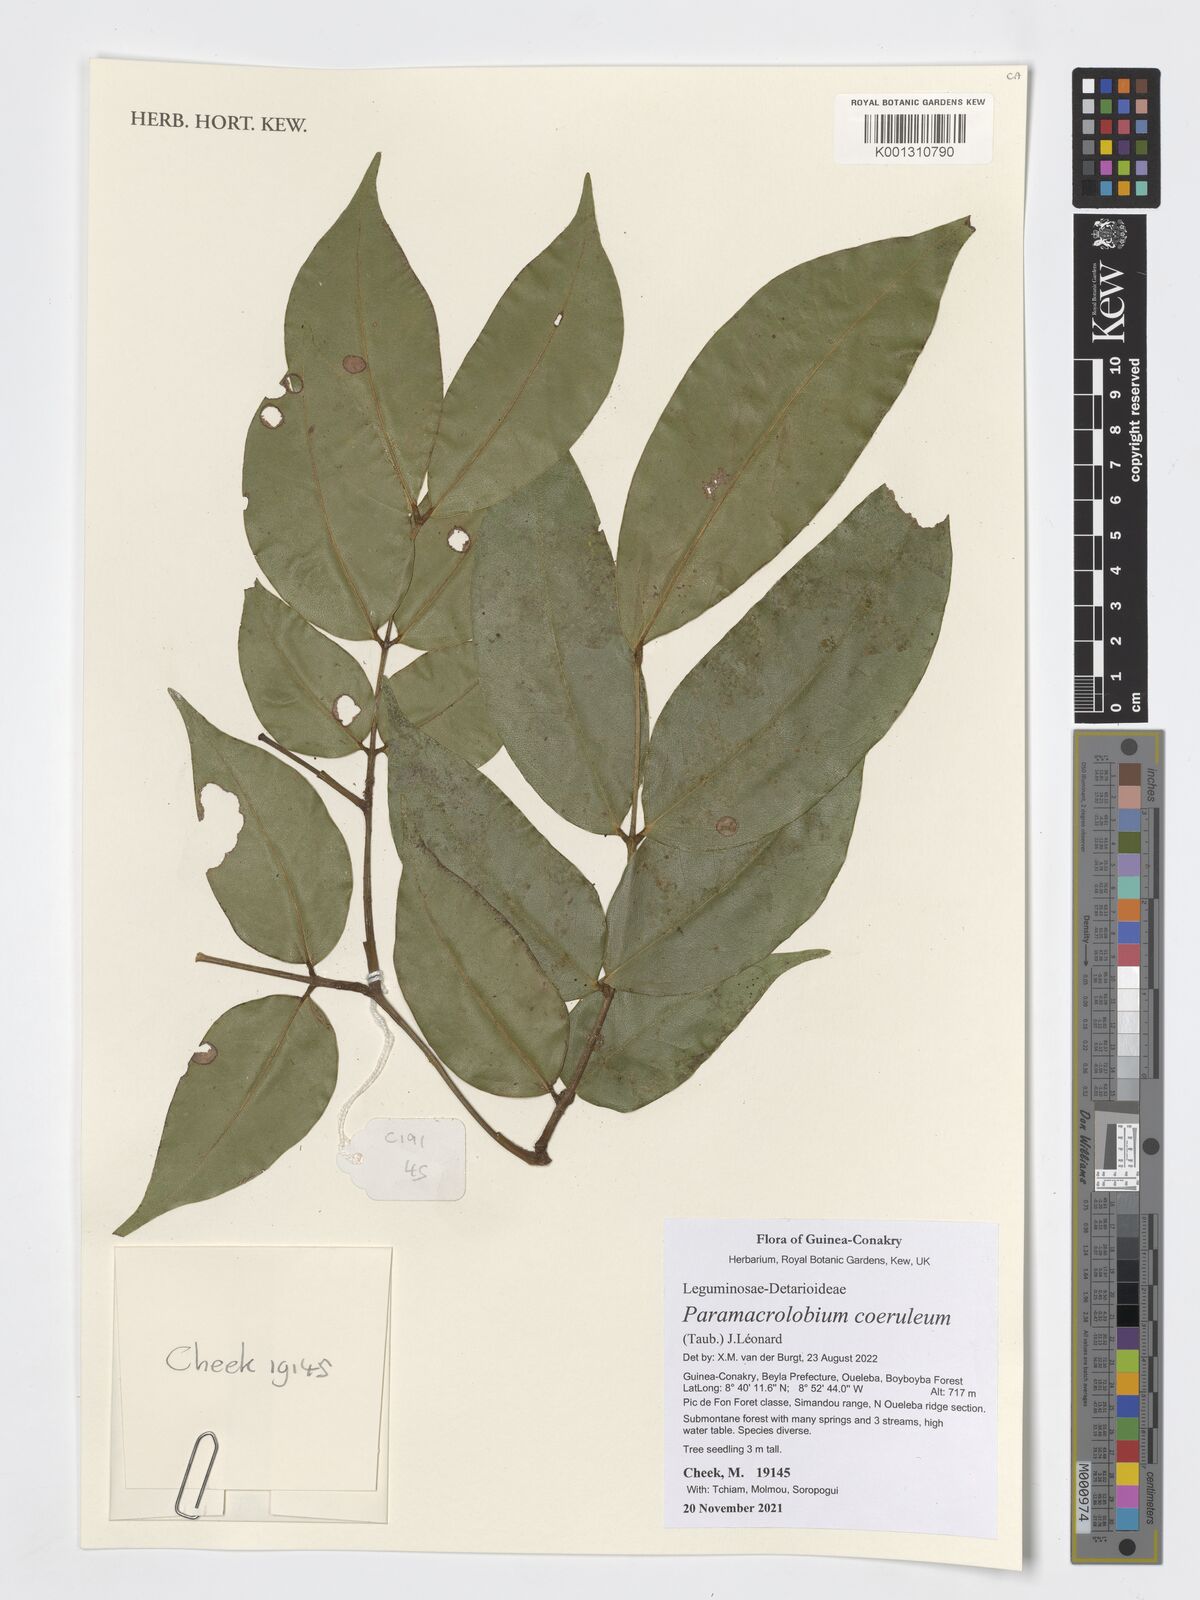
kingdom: Plantae
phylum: Tracheophyta
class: Magnoliopsida
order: Fabales
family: Fabaceae
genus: Paramacrolobium
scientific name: Paramacrolobium coeruleum
